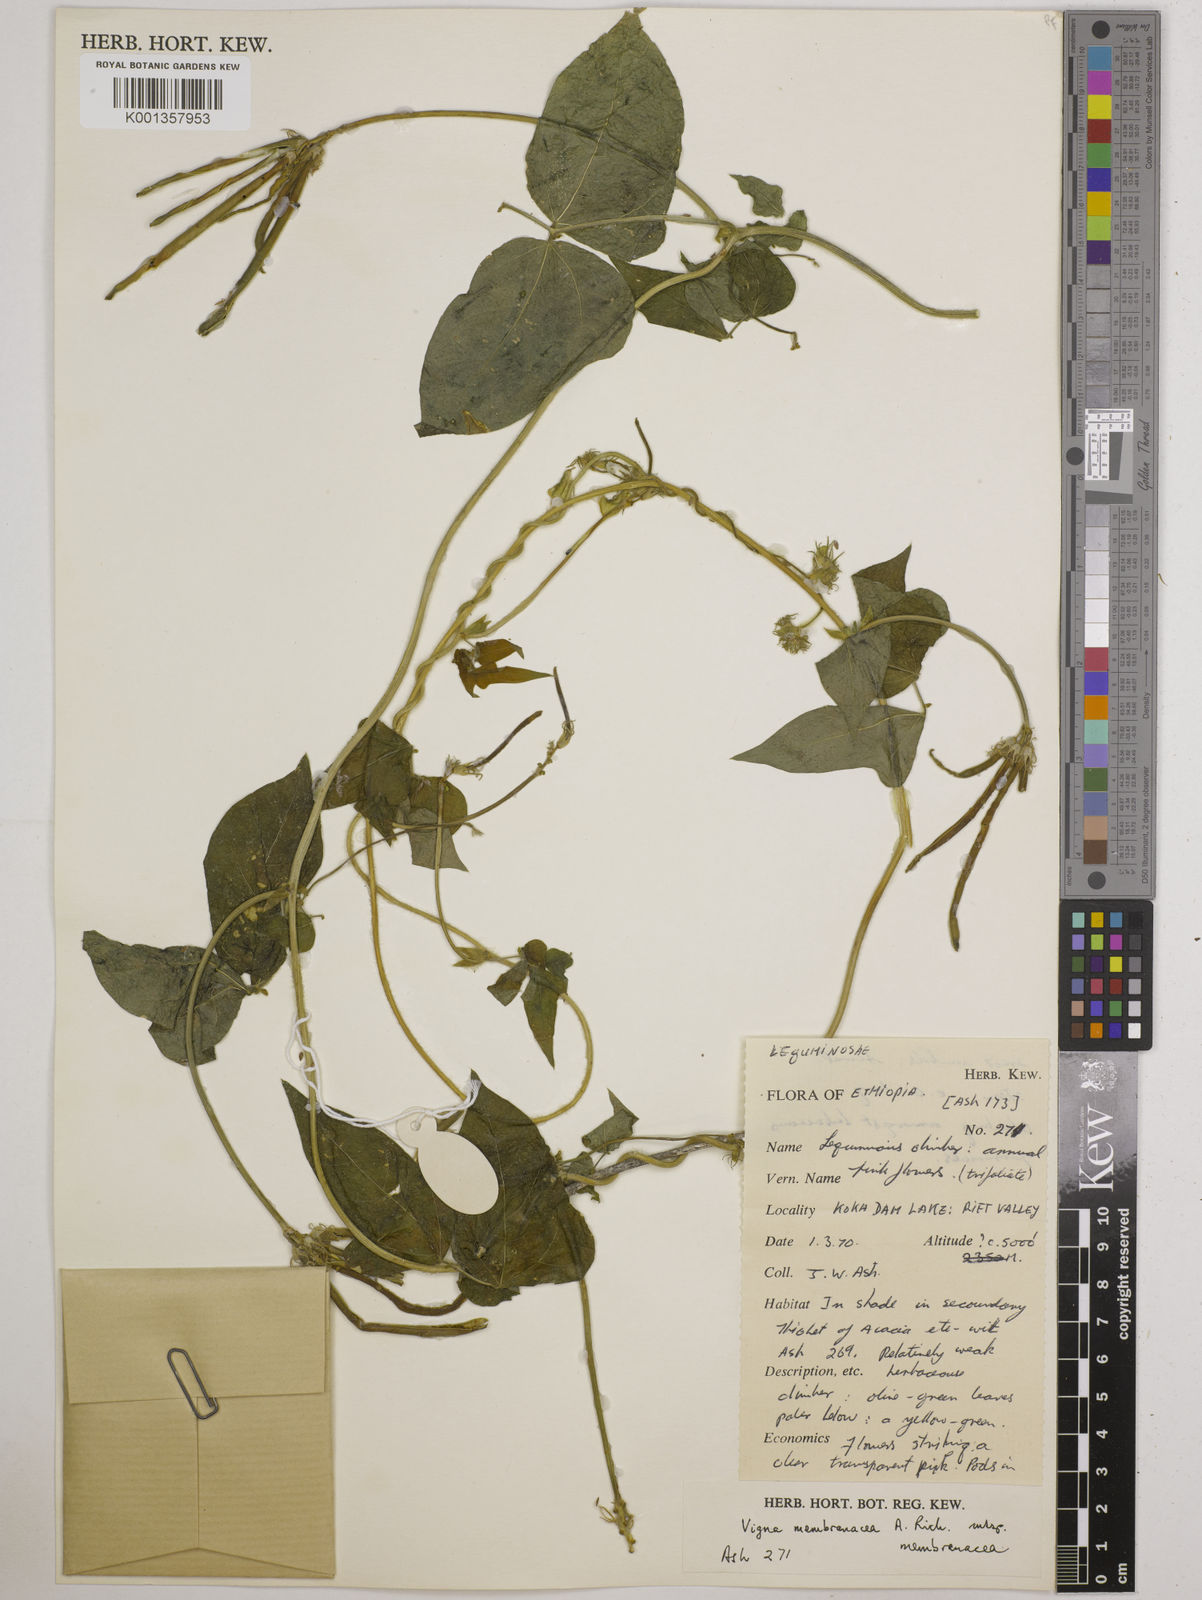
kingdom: Plantae
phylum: Tracheophyta
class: Magnoliopsida
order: Fabales
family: Fabaceae
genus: Vigna
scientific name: Vigna membranacea
